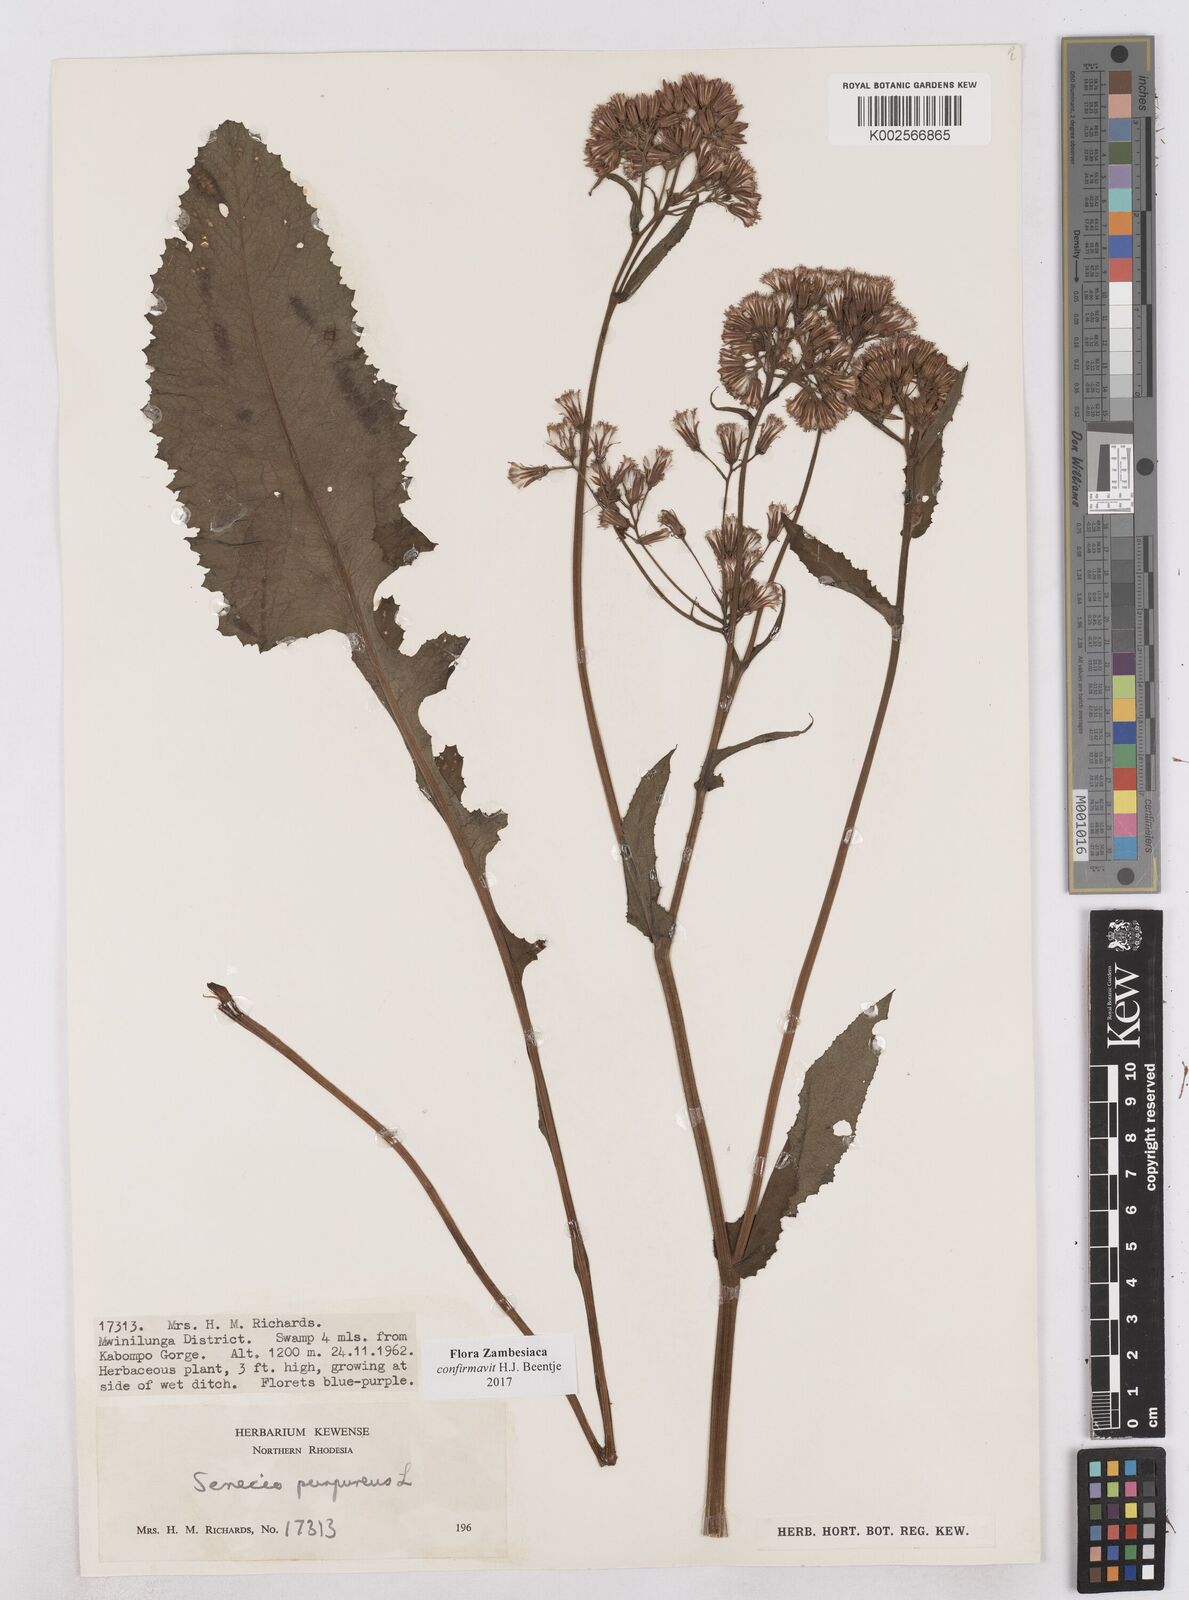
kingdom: Plantae
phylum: Tracheophyta
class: Magnoliopsida
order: Asterales
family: Asteraceae
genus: Senecio
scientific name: Senecio purpureus
